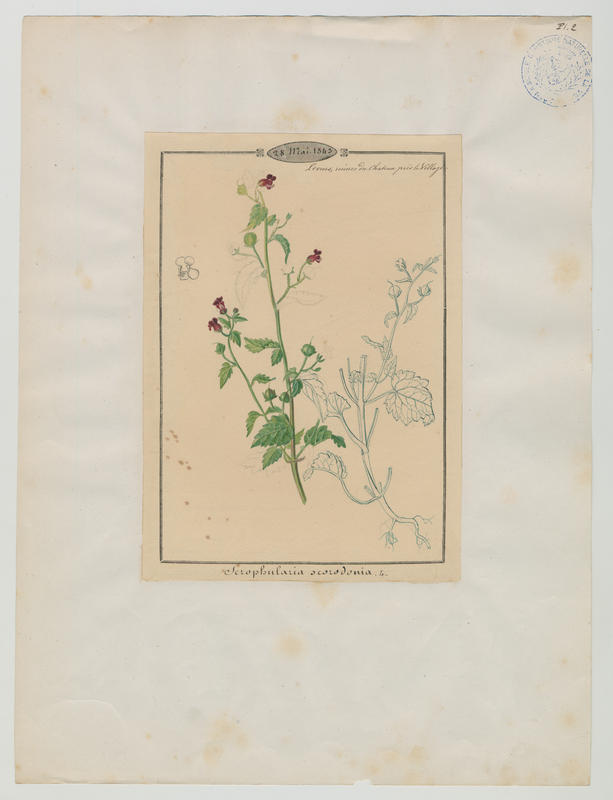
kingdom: Plantae
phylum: Tracheophyta
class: Magnoliopsida
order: Lamiales
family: Scrophulariaceae
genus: Scrophularia
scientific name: Scrophularia scorodonia
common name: Balm-leaved figwort
